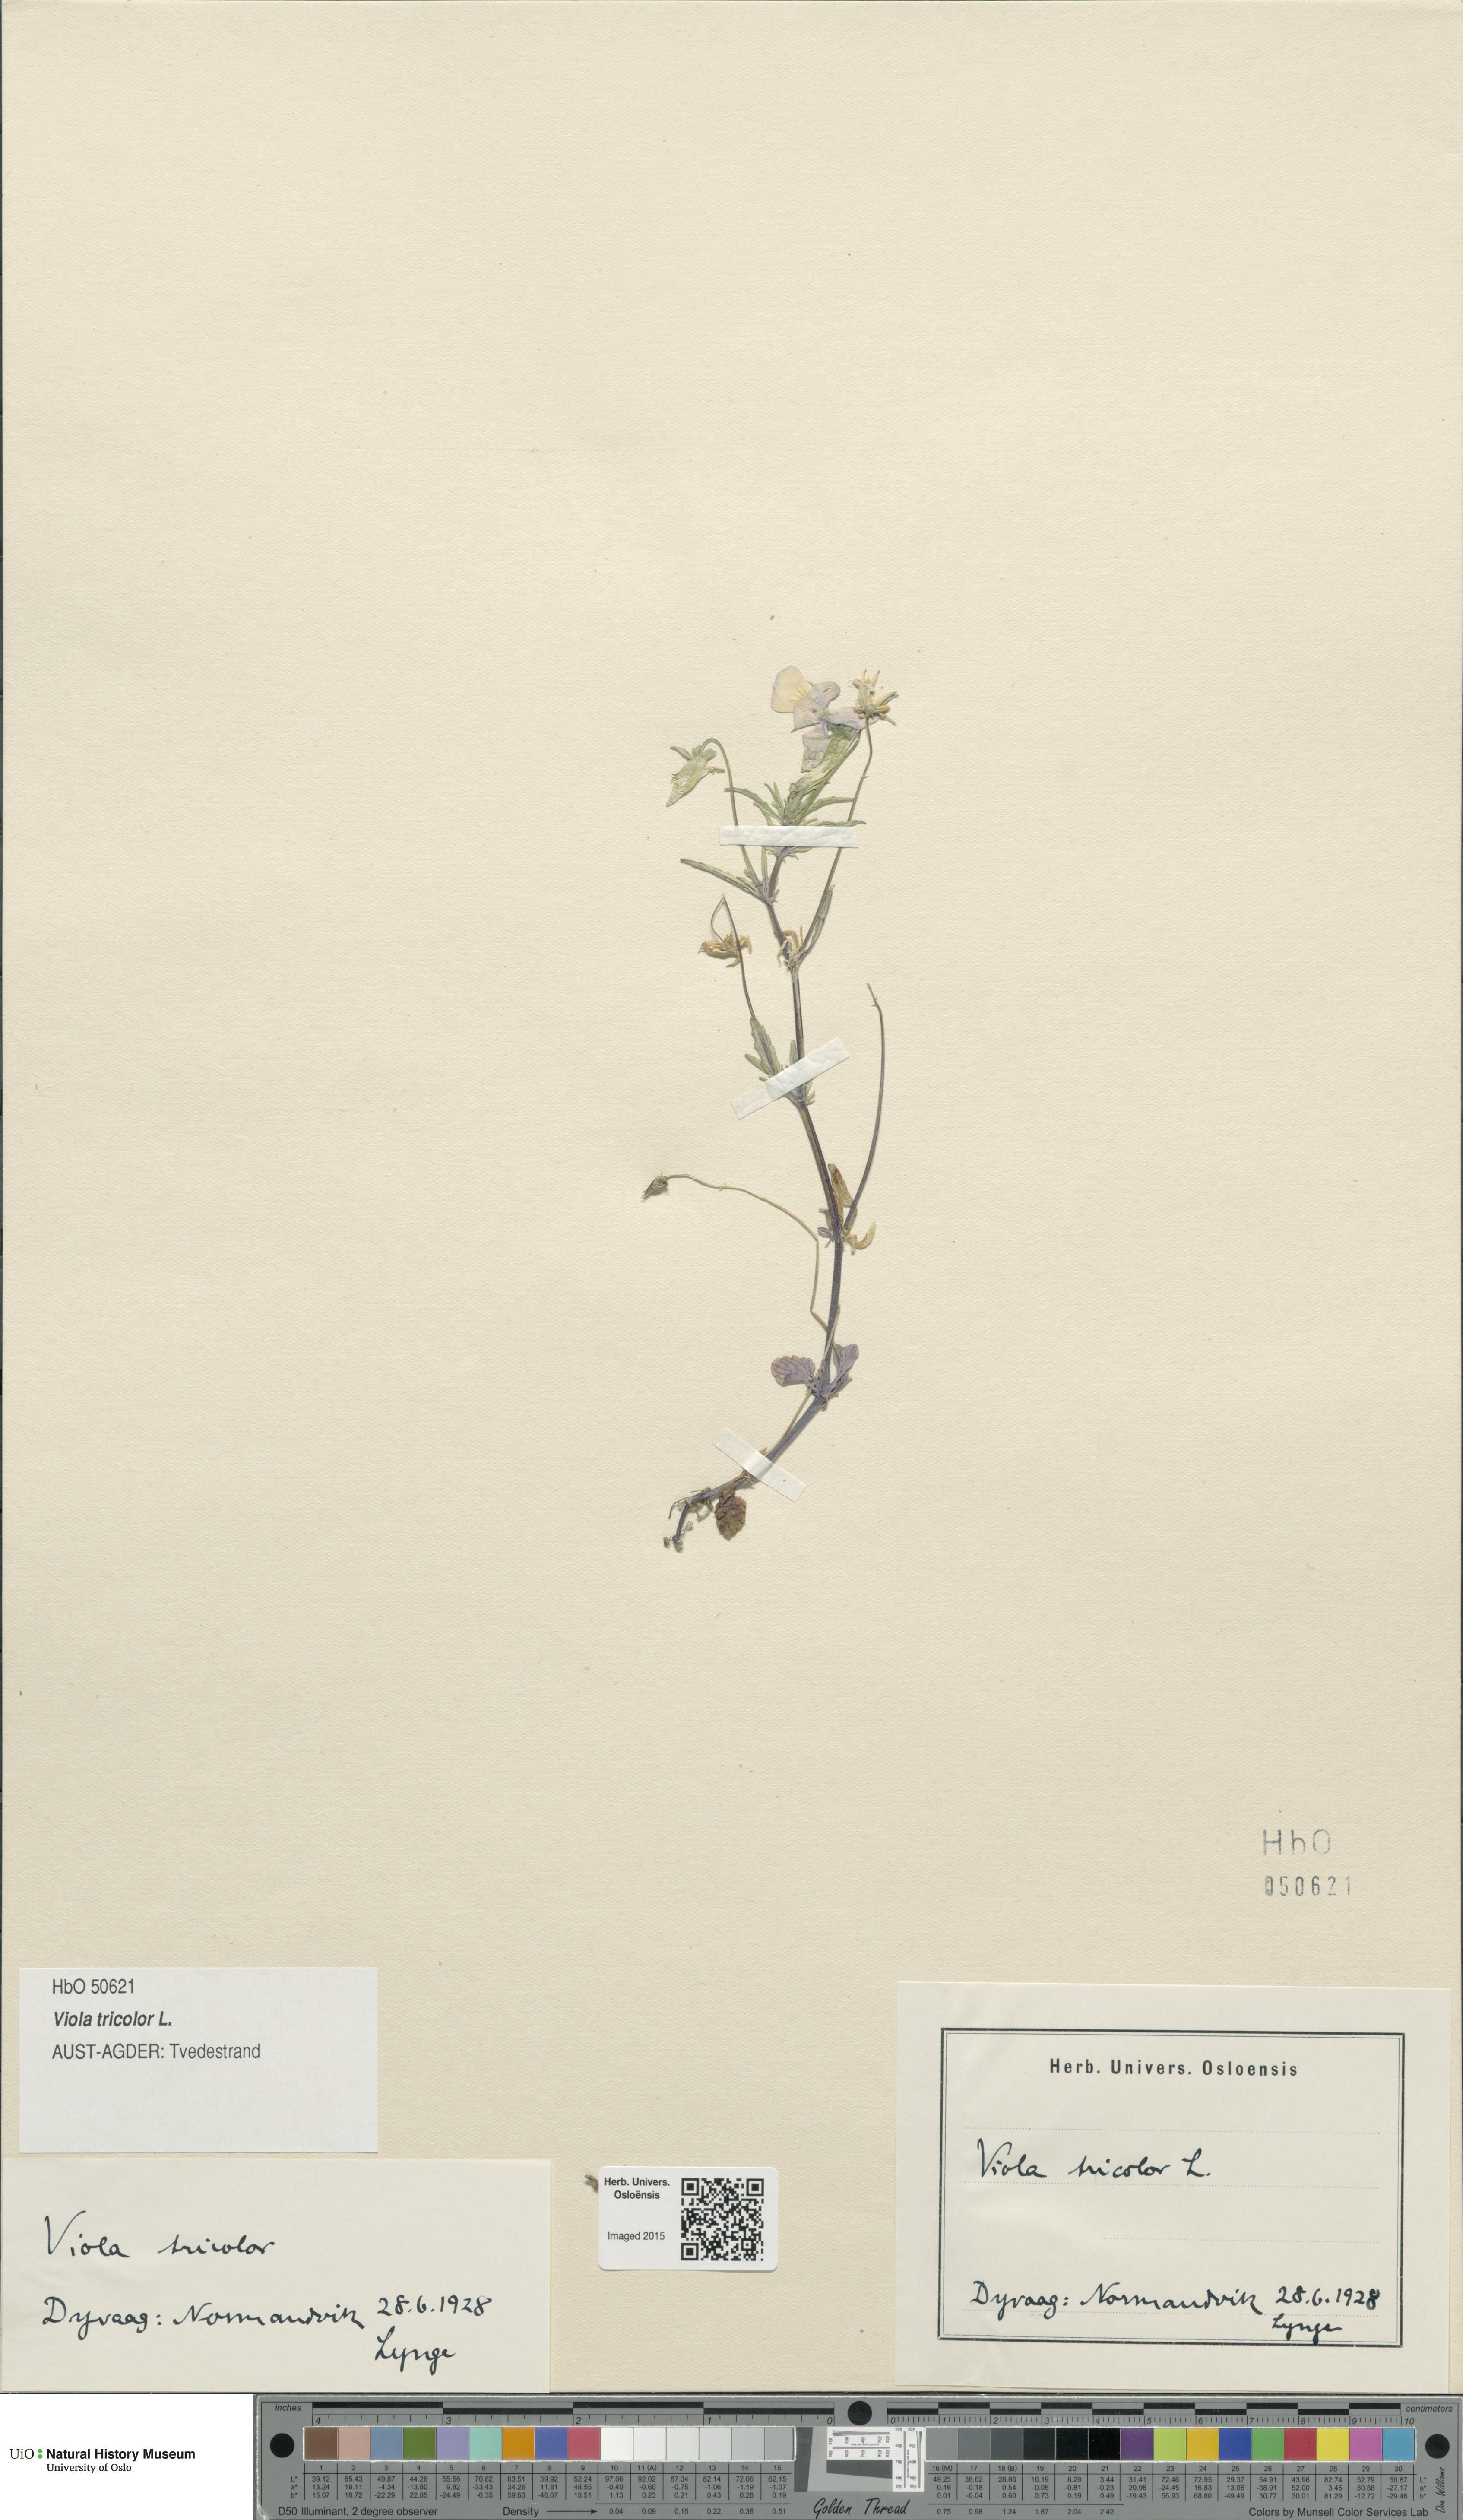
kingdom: Plantae
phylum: Tracheophyta
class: Magnoliopsida
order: Malpighiales
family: Violaceae
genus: Viola
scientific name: Viola tricolor
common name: Pansy
